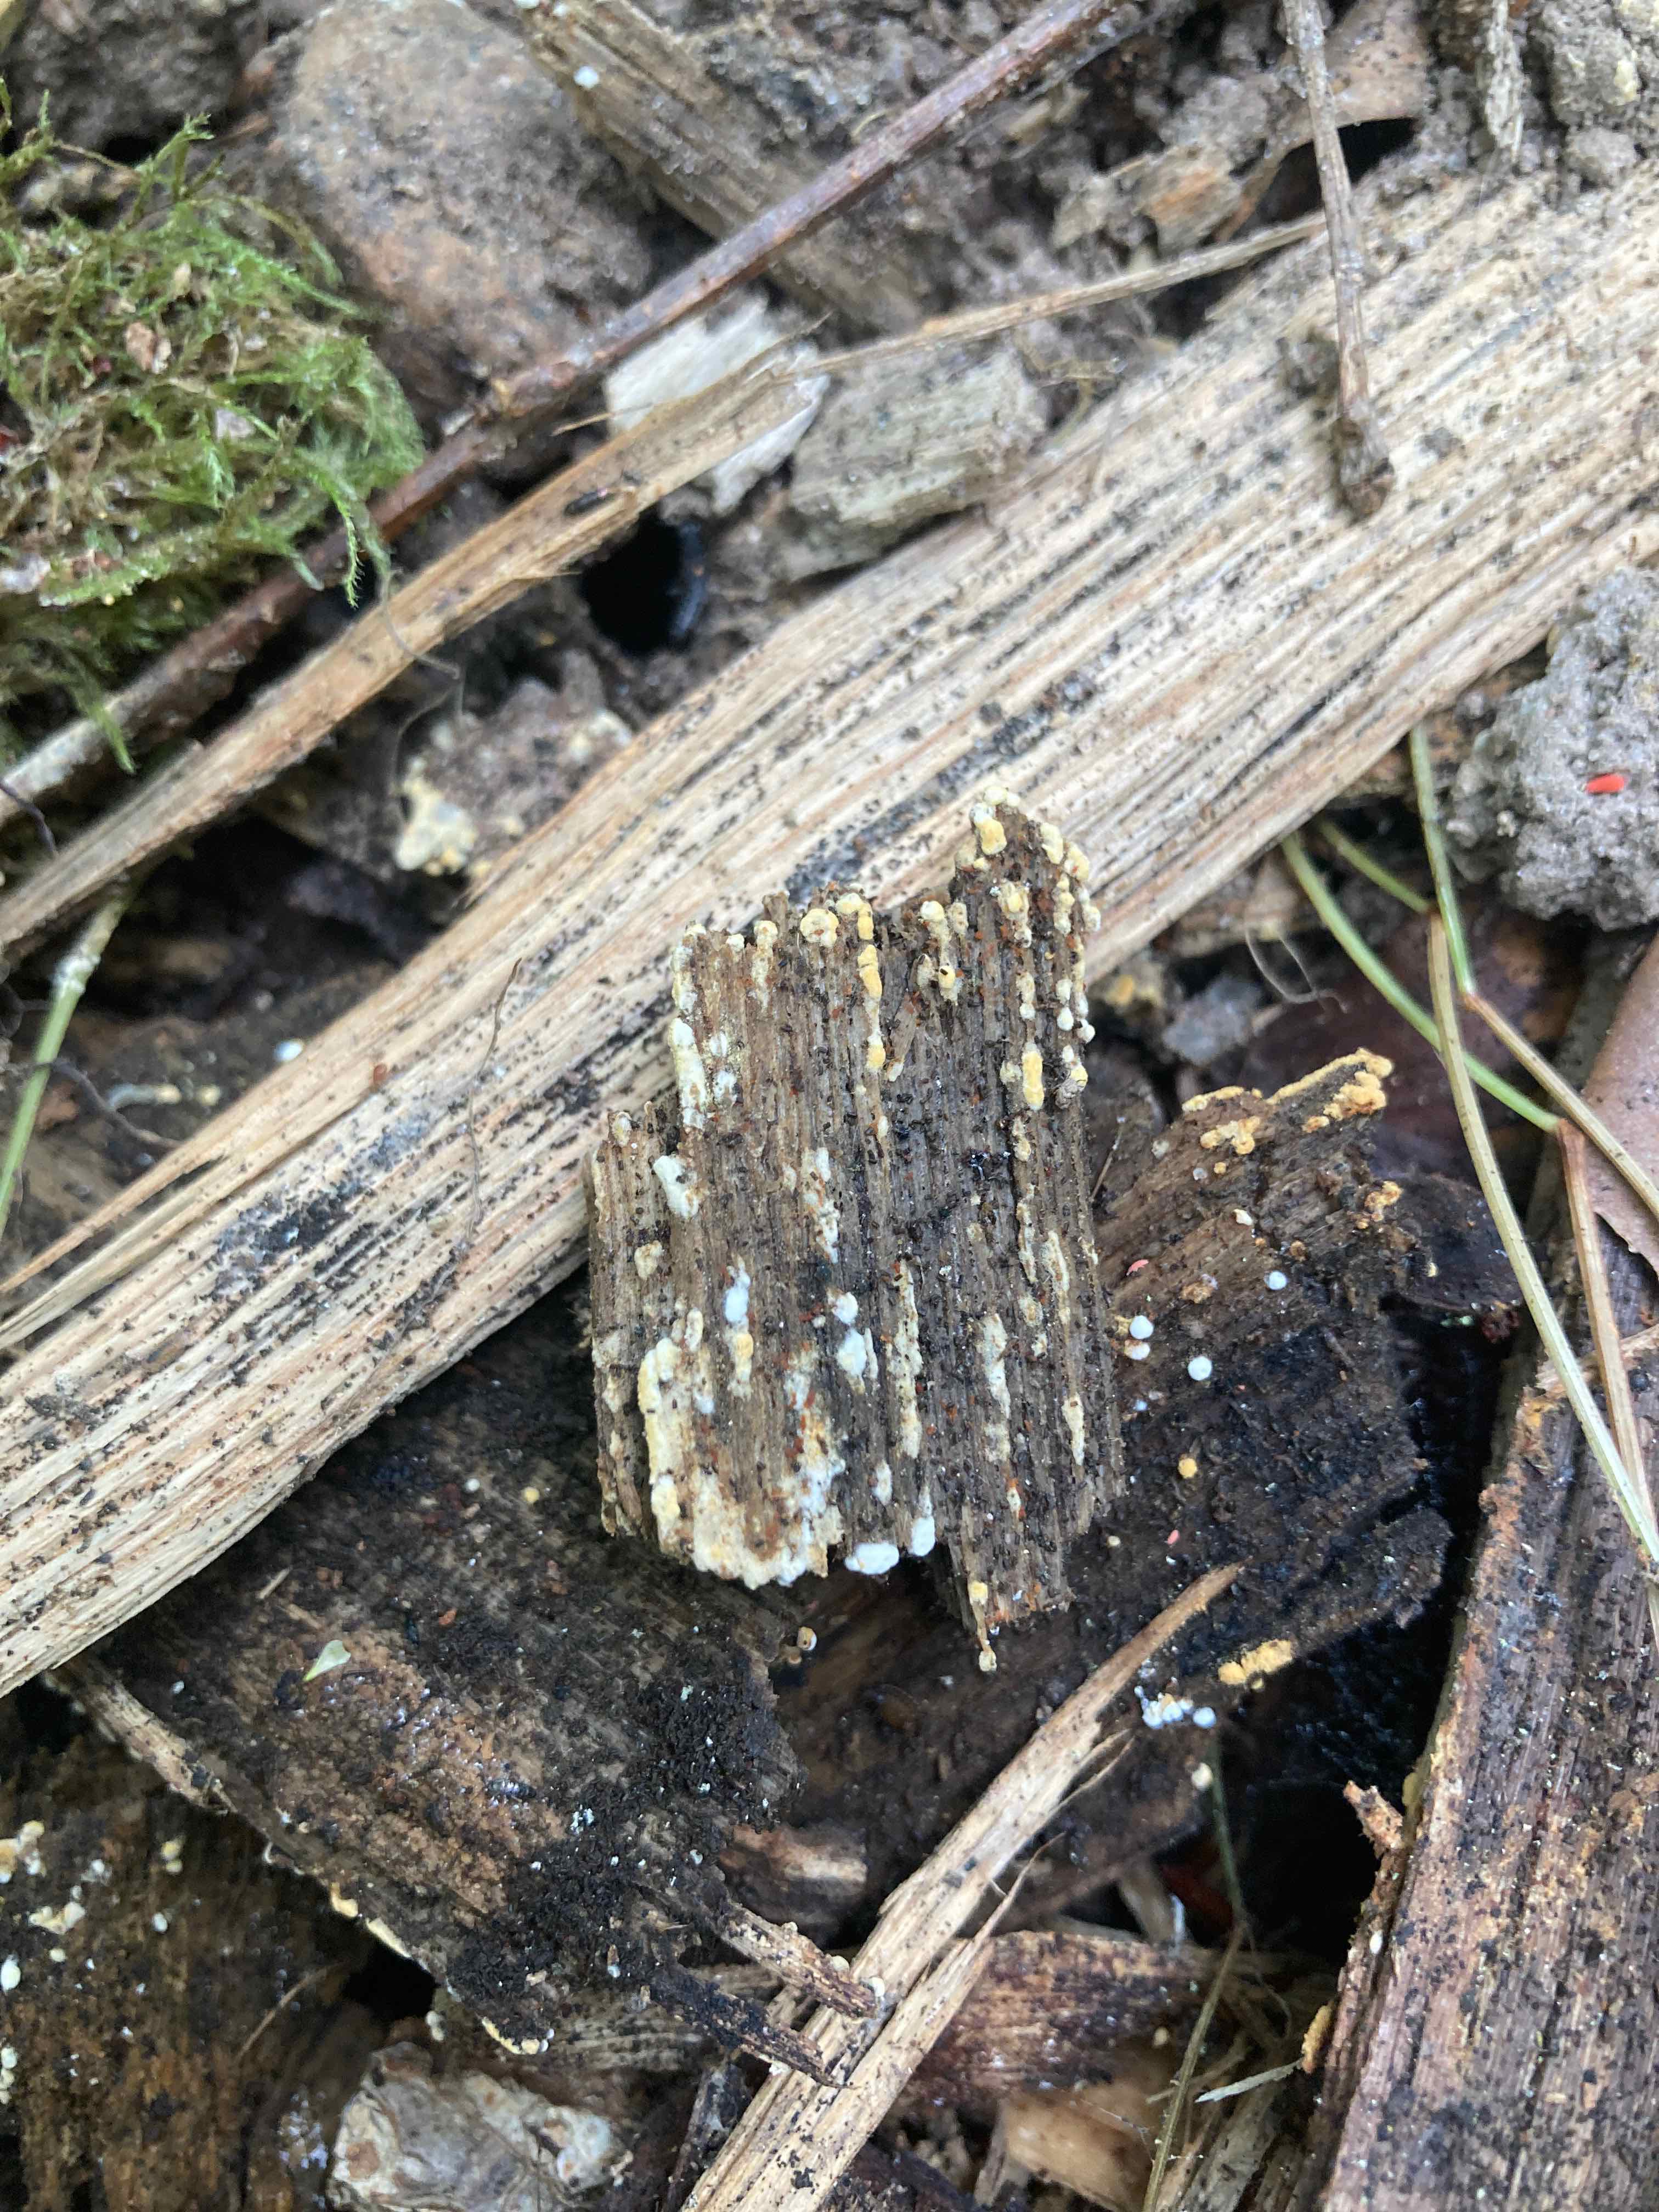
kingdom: Fungi
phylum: Basidiomycota
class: Agaricomycetes
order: Cantharellales
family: Botryobasidiaceae
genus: Botryobasidium
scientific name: Botryobasidium aureum
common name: gylden spindhinde
